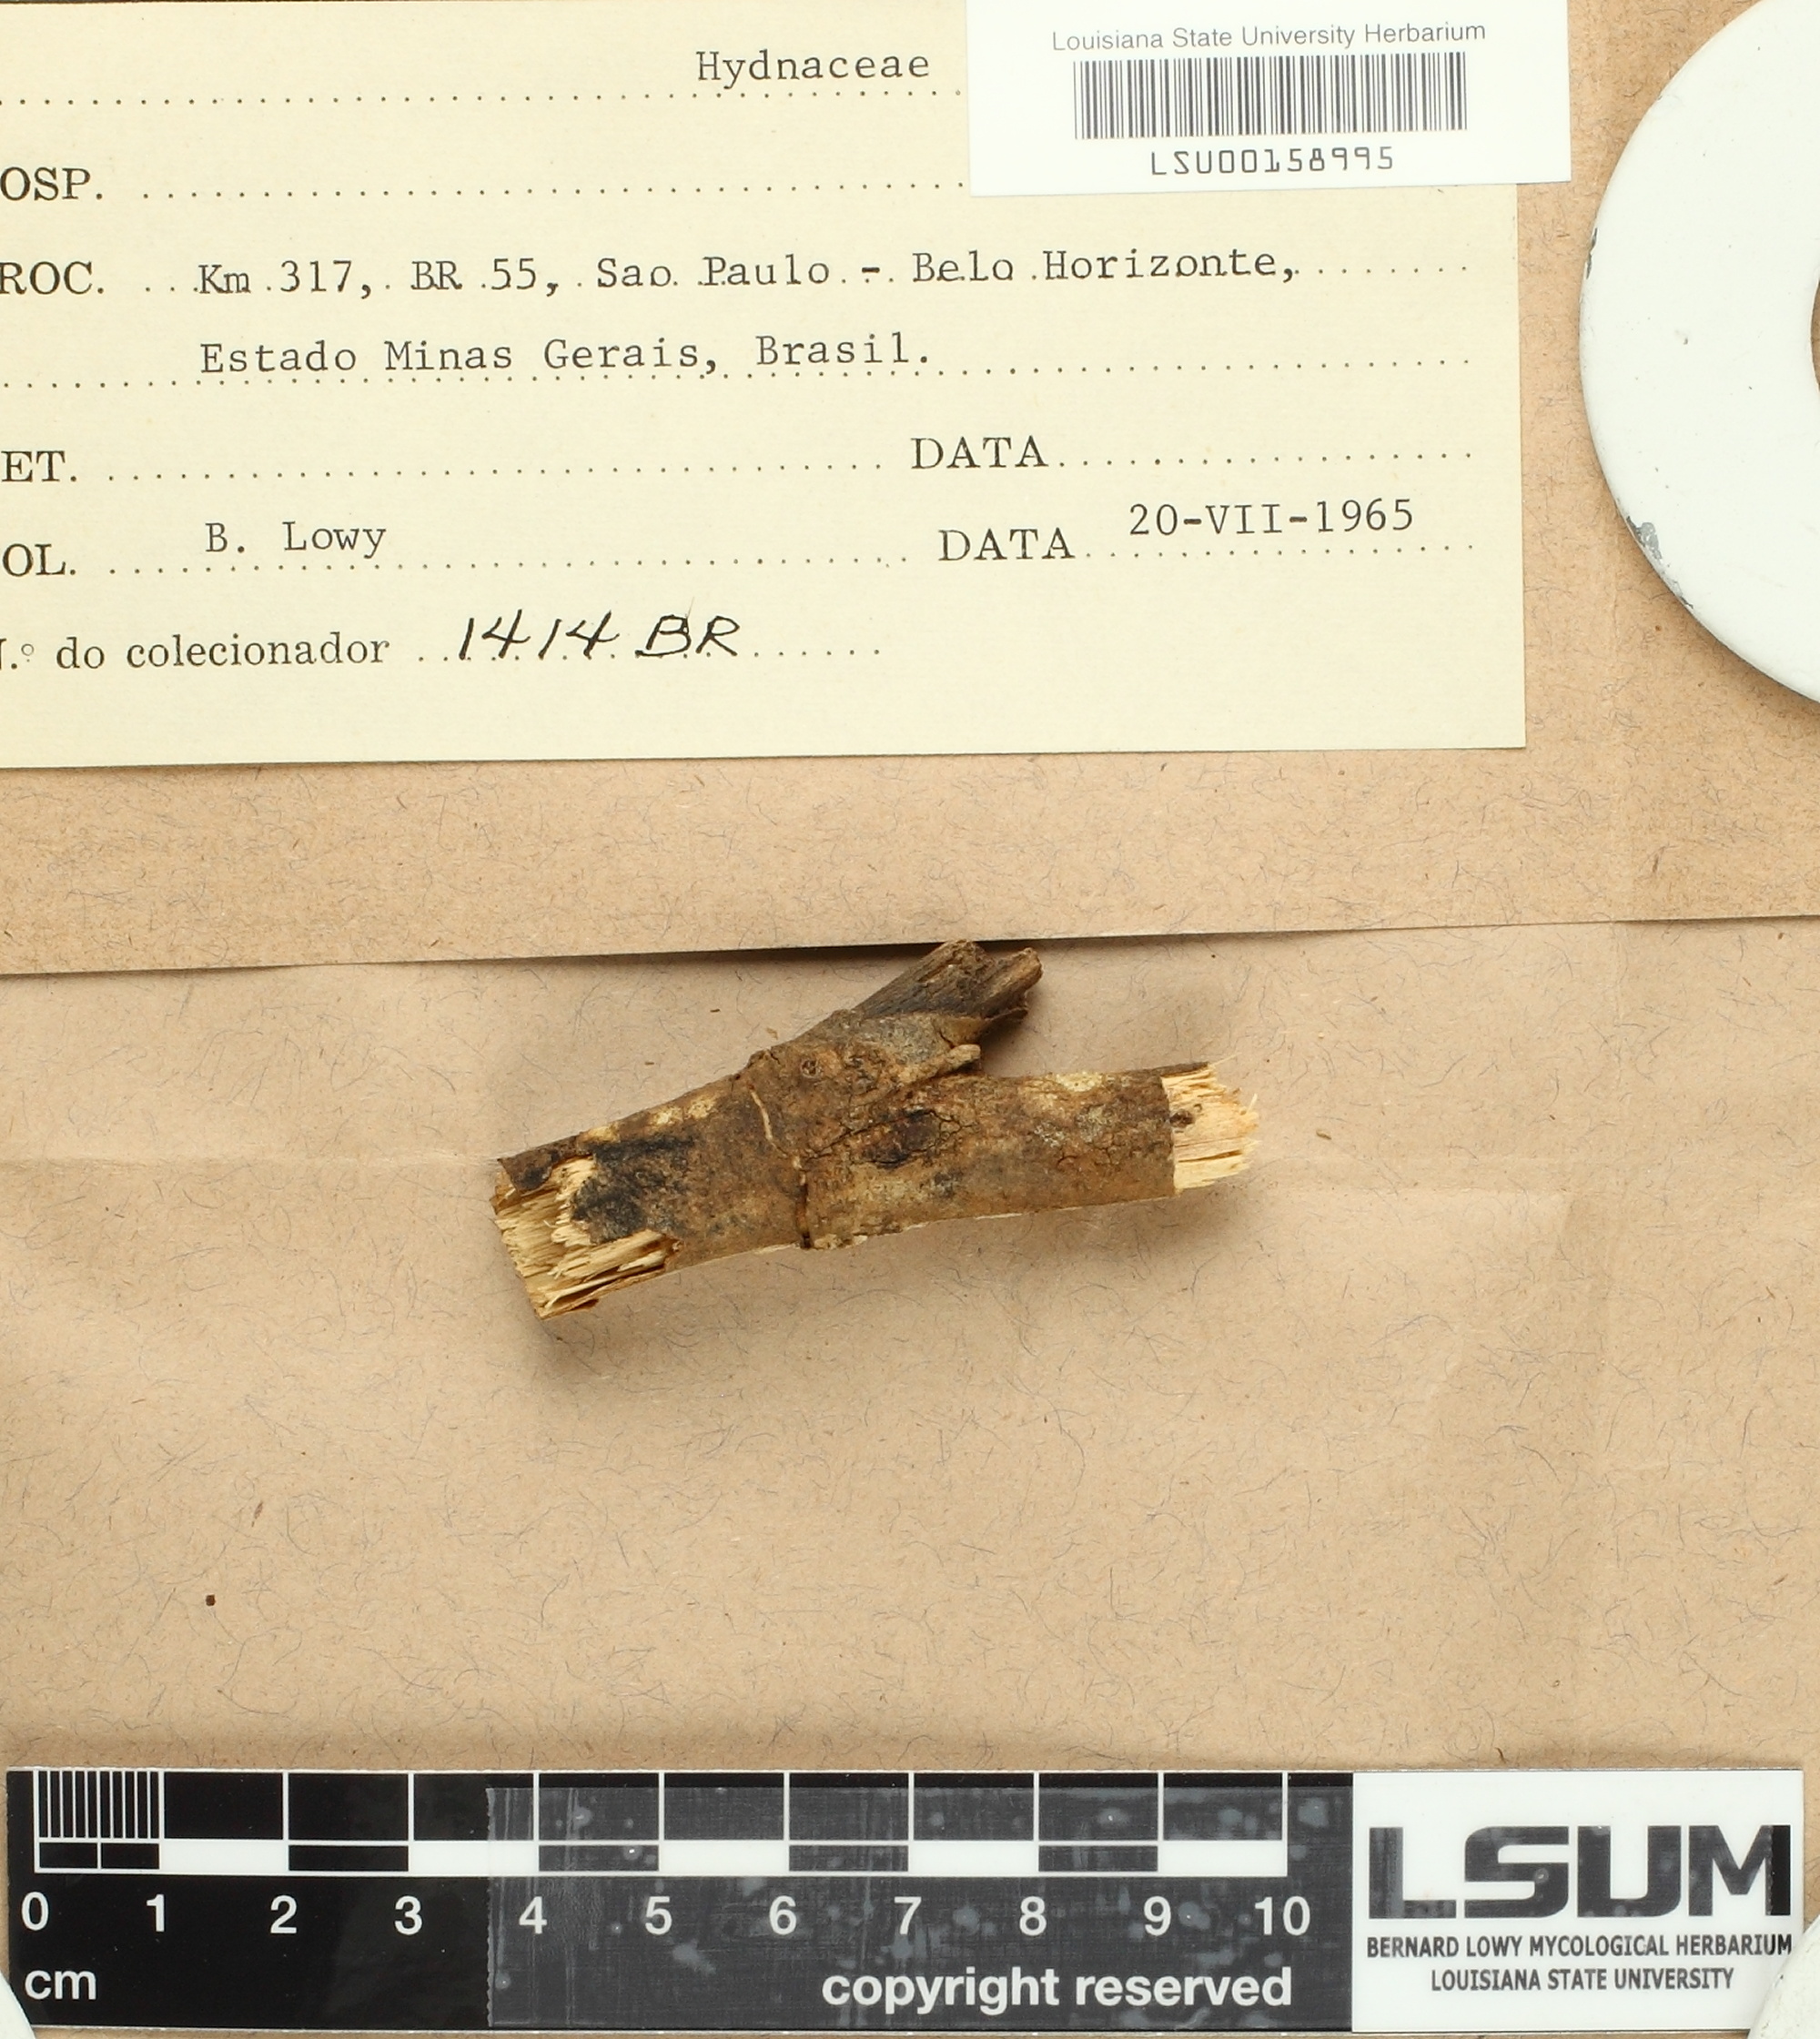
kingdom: Fungi
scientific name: Fungi
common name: Fungi
